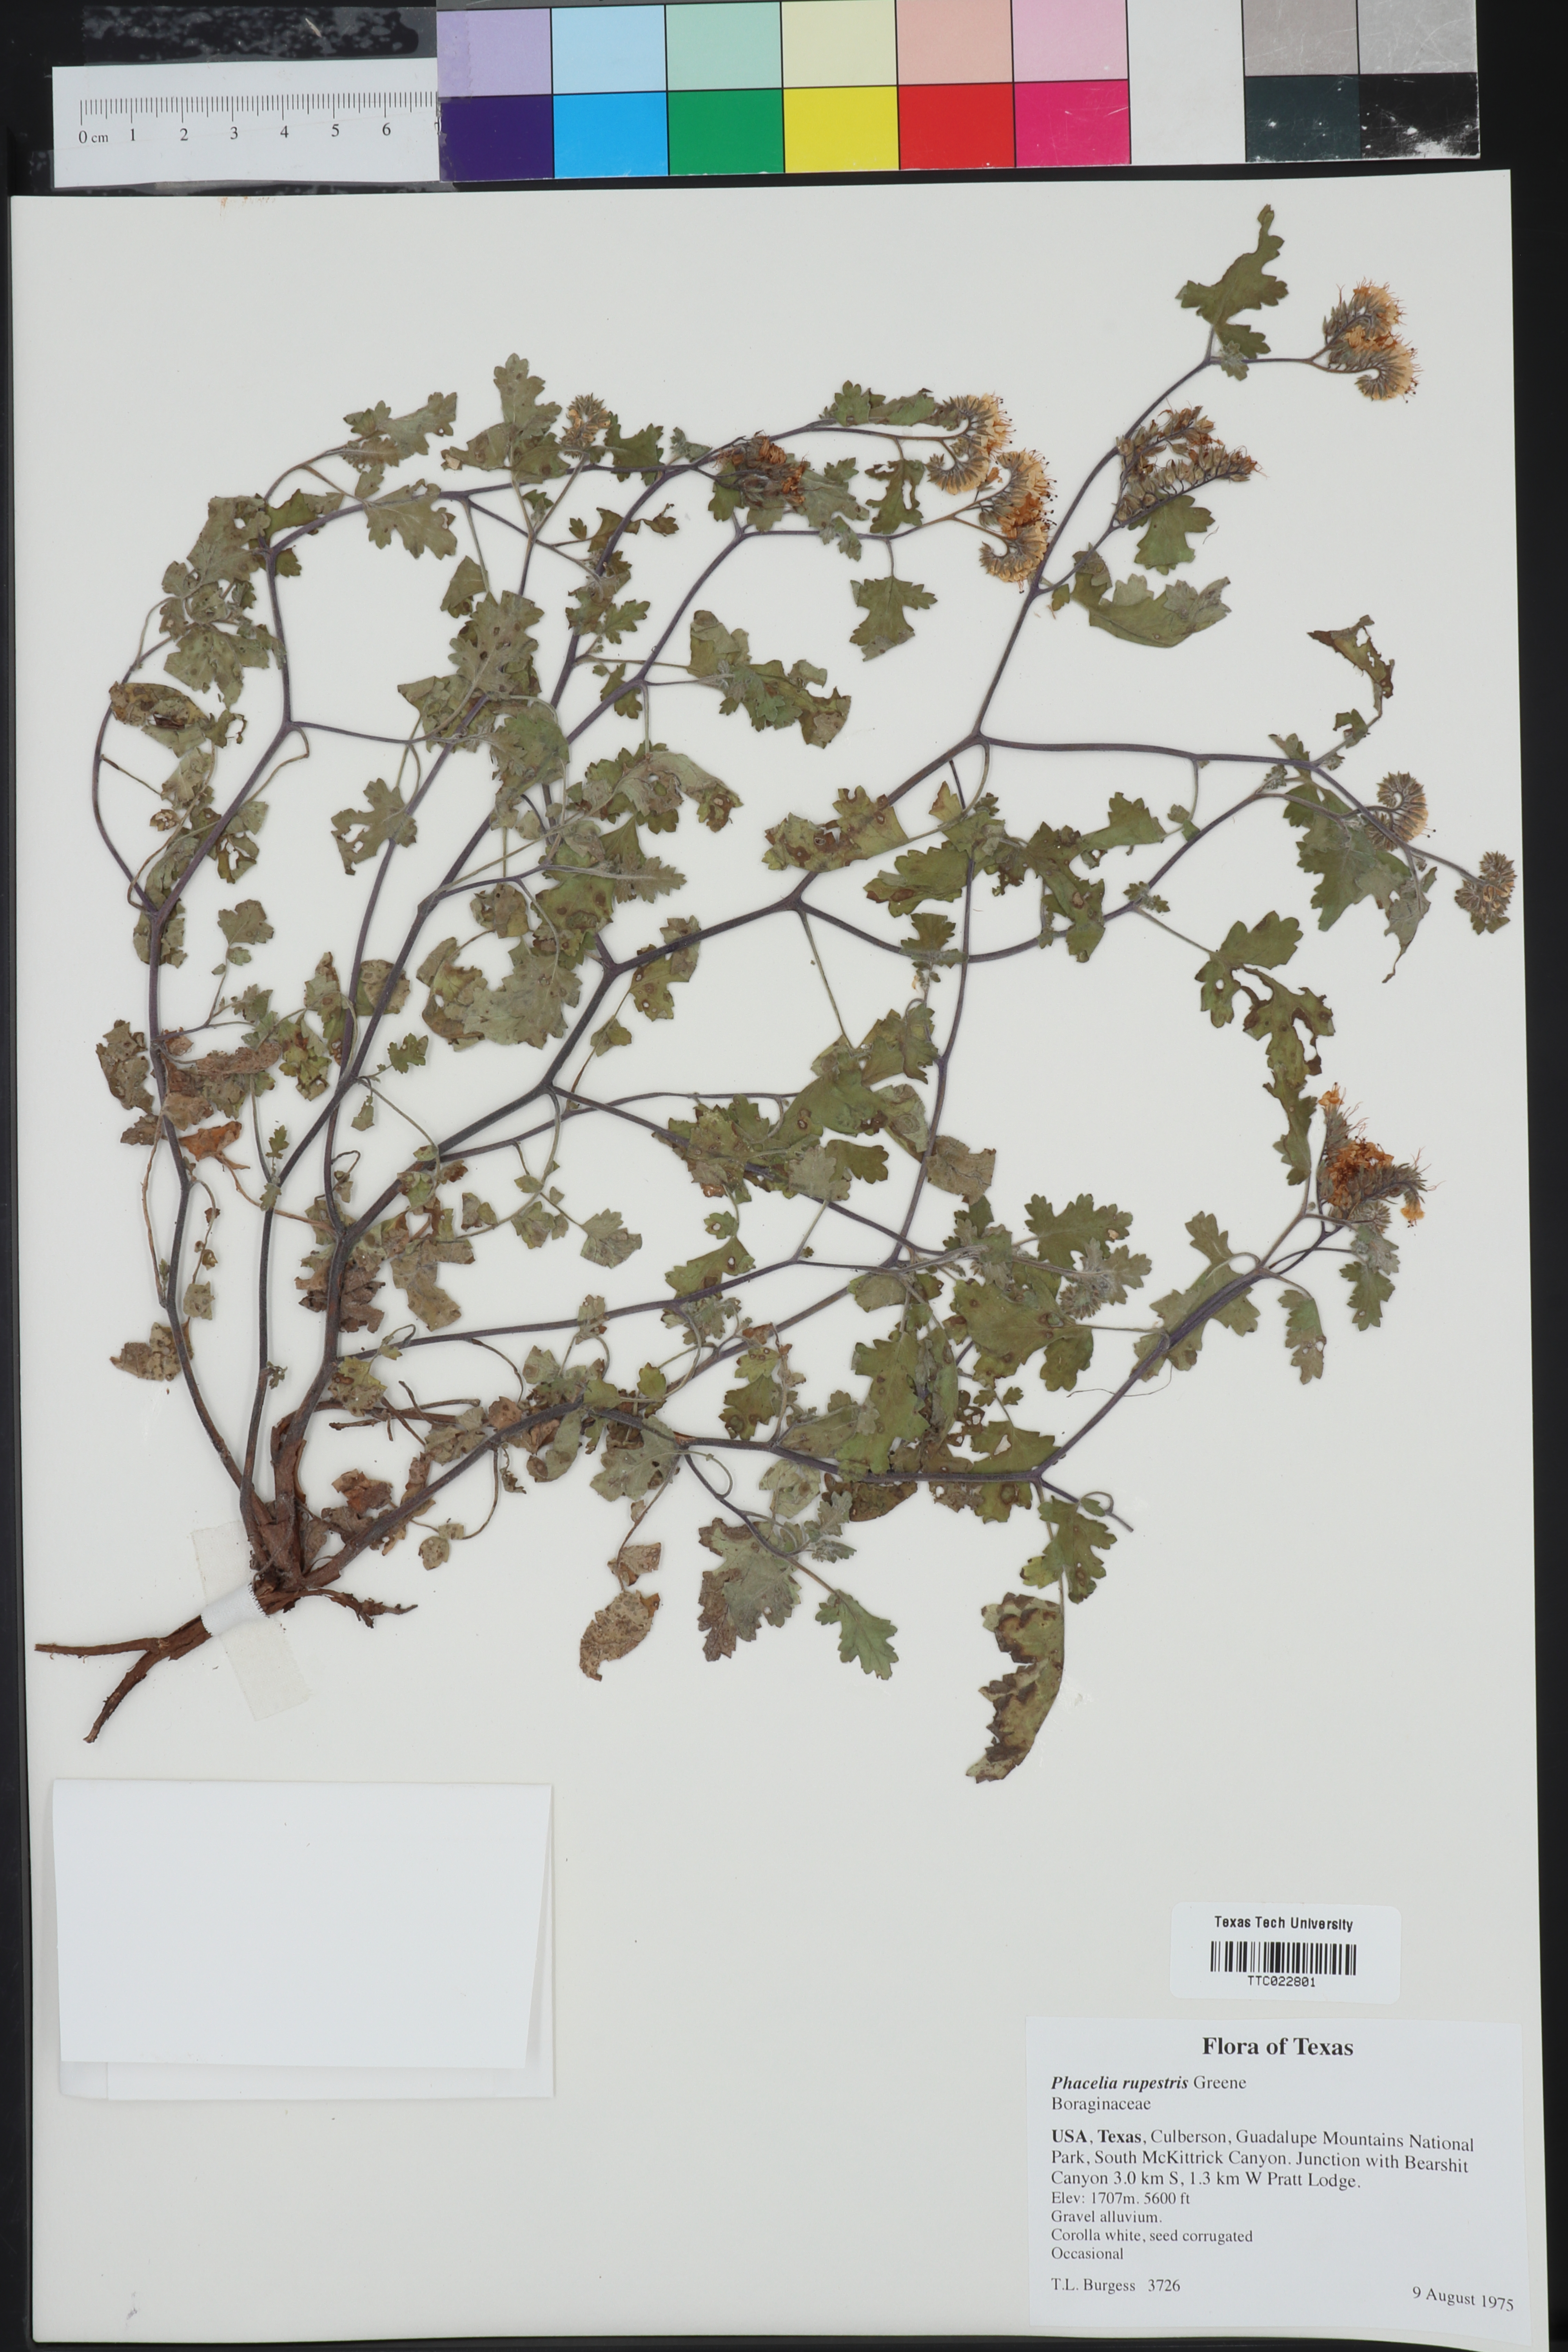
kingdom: Plantae
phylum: Tracheophyta
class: Magnoliopsida
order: Boraginales
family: Hydrophyllaceae
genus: Phacelia
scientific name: Phacelia rupestris
